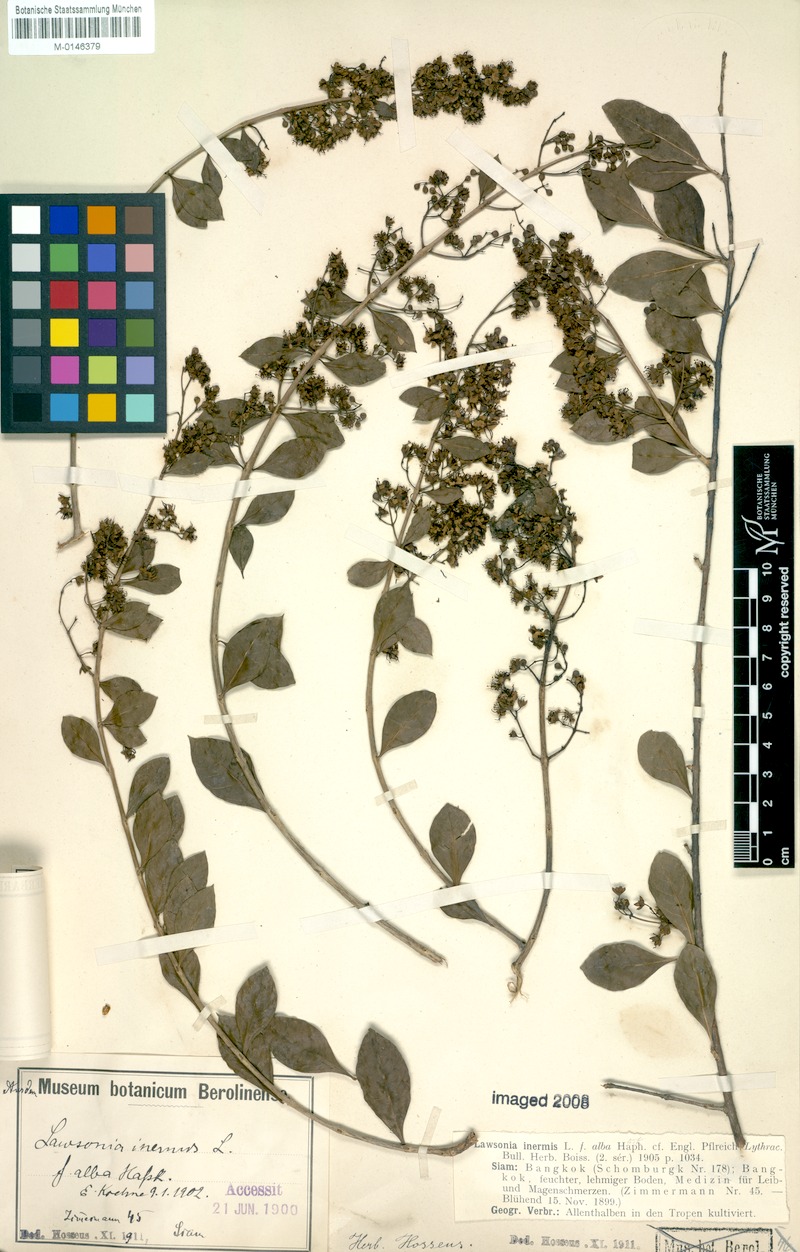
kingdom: Plantae
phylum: Tracheophyta
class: Magnoliopsida
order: Myrtales
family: Lythraceae
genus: Lawsonia
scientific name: Lawsonia inermis
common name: Henna
